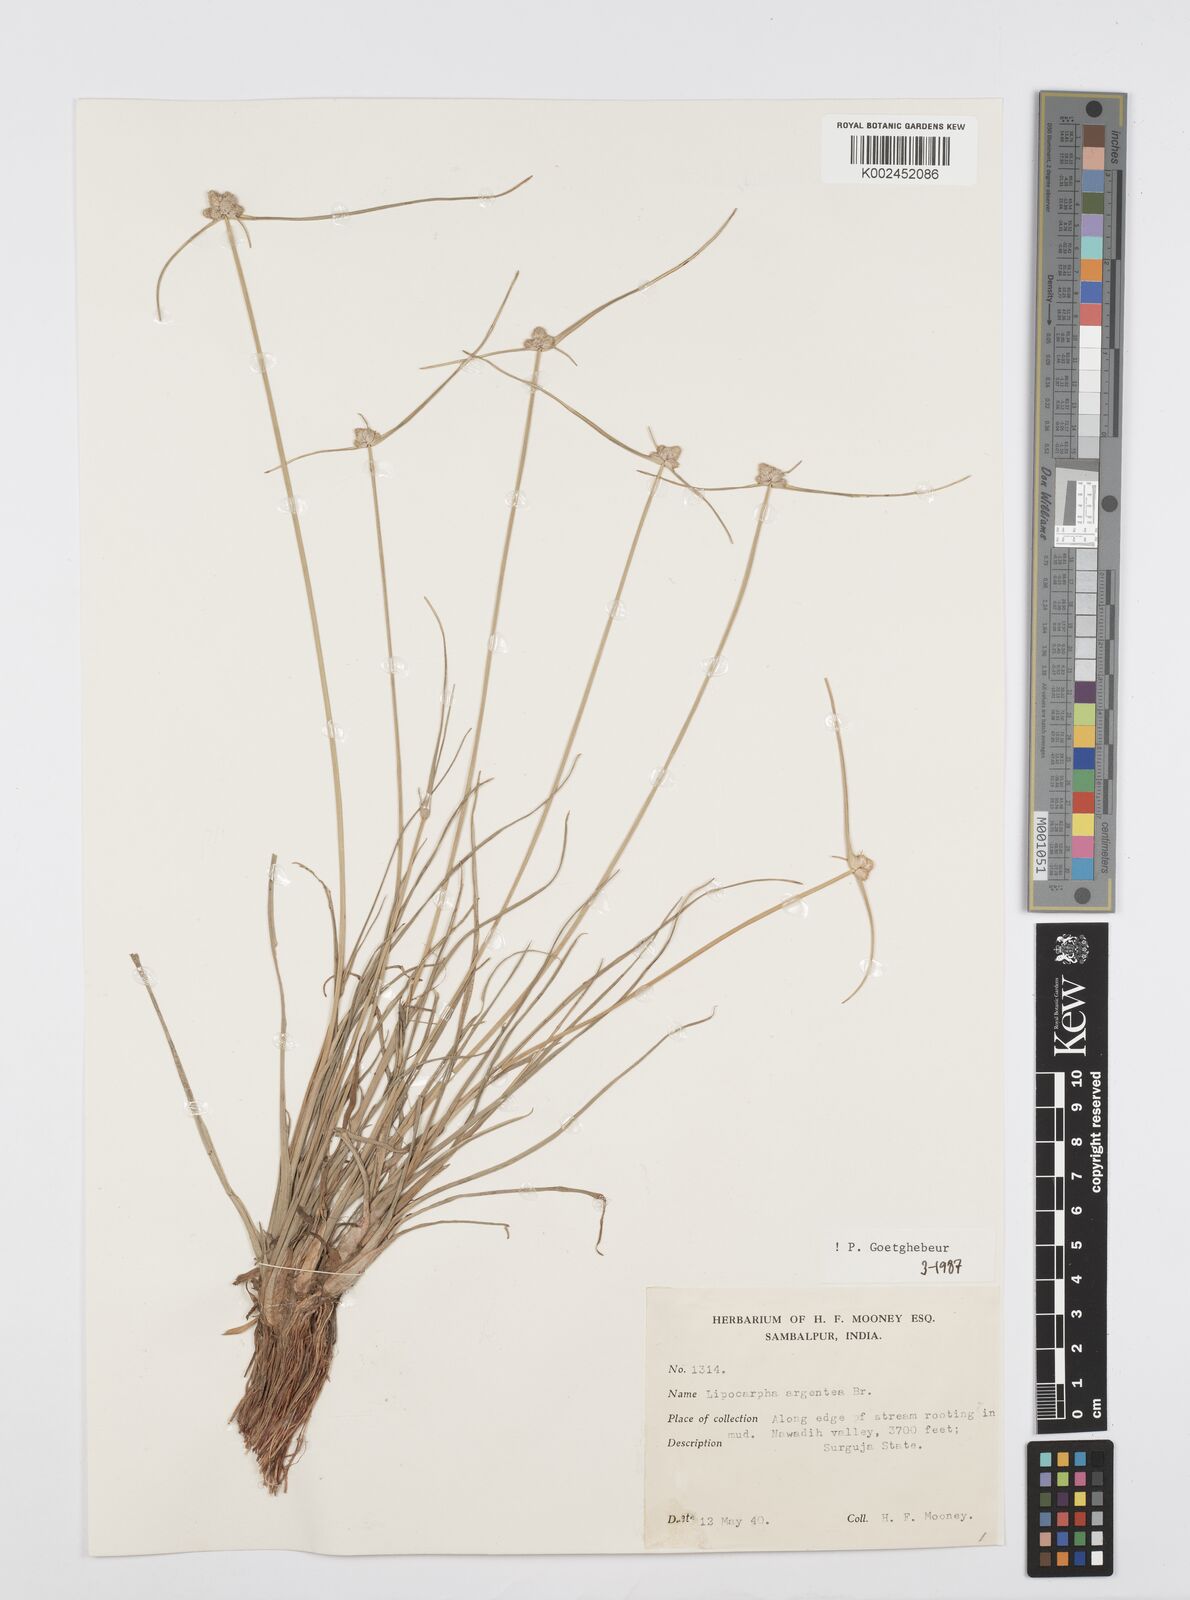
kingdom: Plantae
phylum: Tracheophyta
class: Liliopsida
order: Poales
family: Cyperaceae
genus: Cyperus
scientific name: Cyperus
